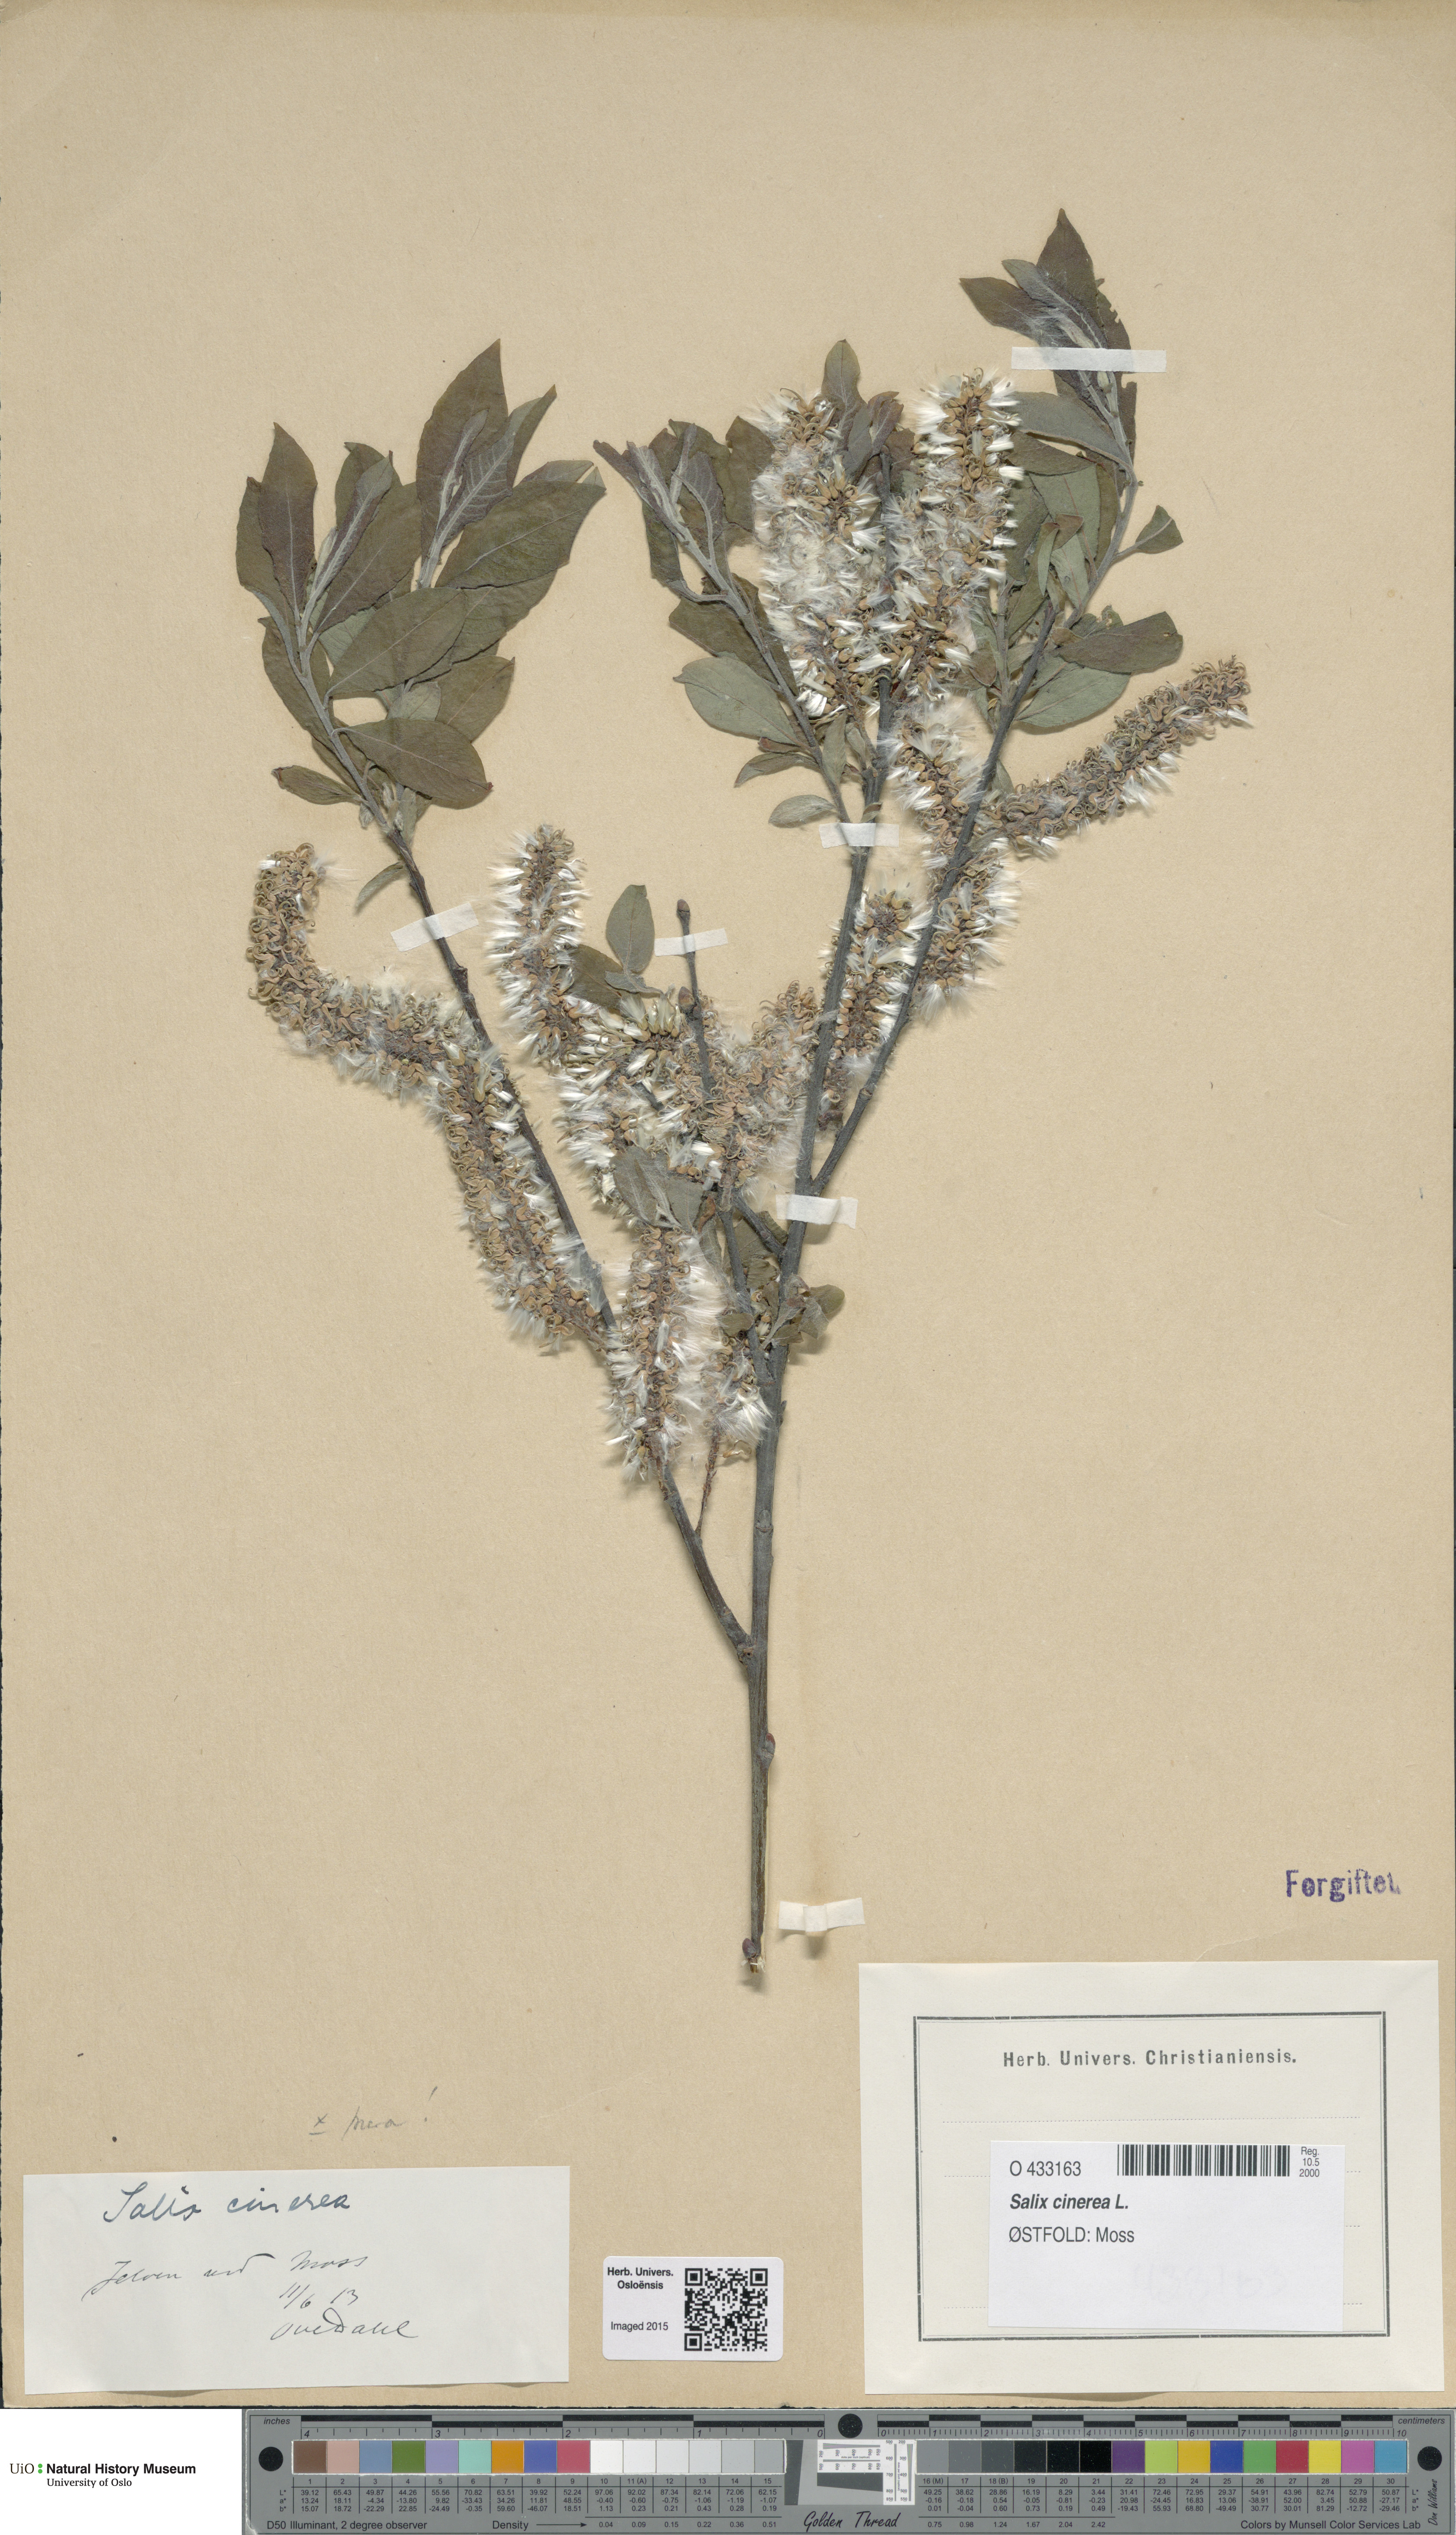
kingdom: Plantae
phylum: Tracheophyta
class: Magnoliopsida
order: Malpighiales
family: Salicaceae
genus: Salix
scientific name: Salix cinerea
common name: Common sallow
